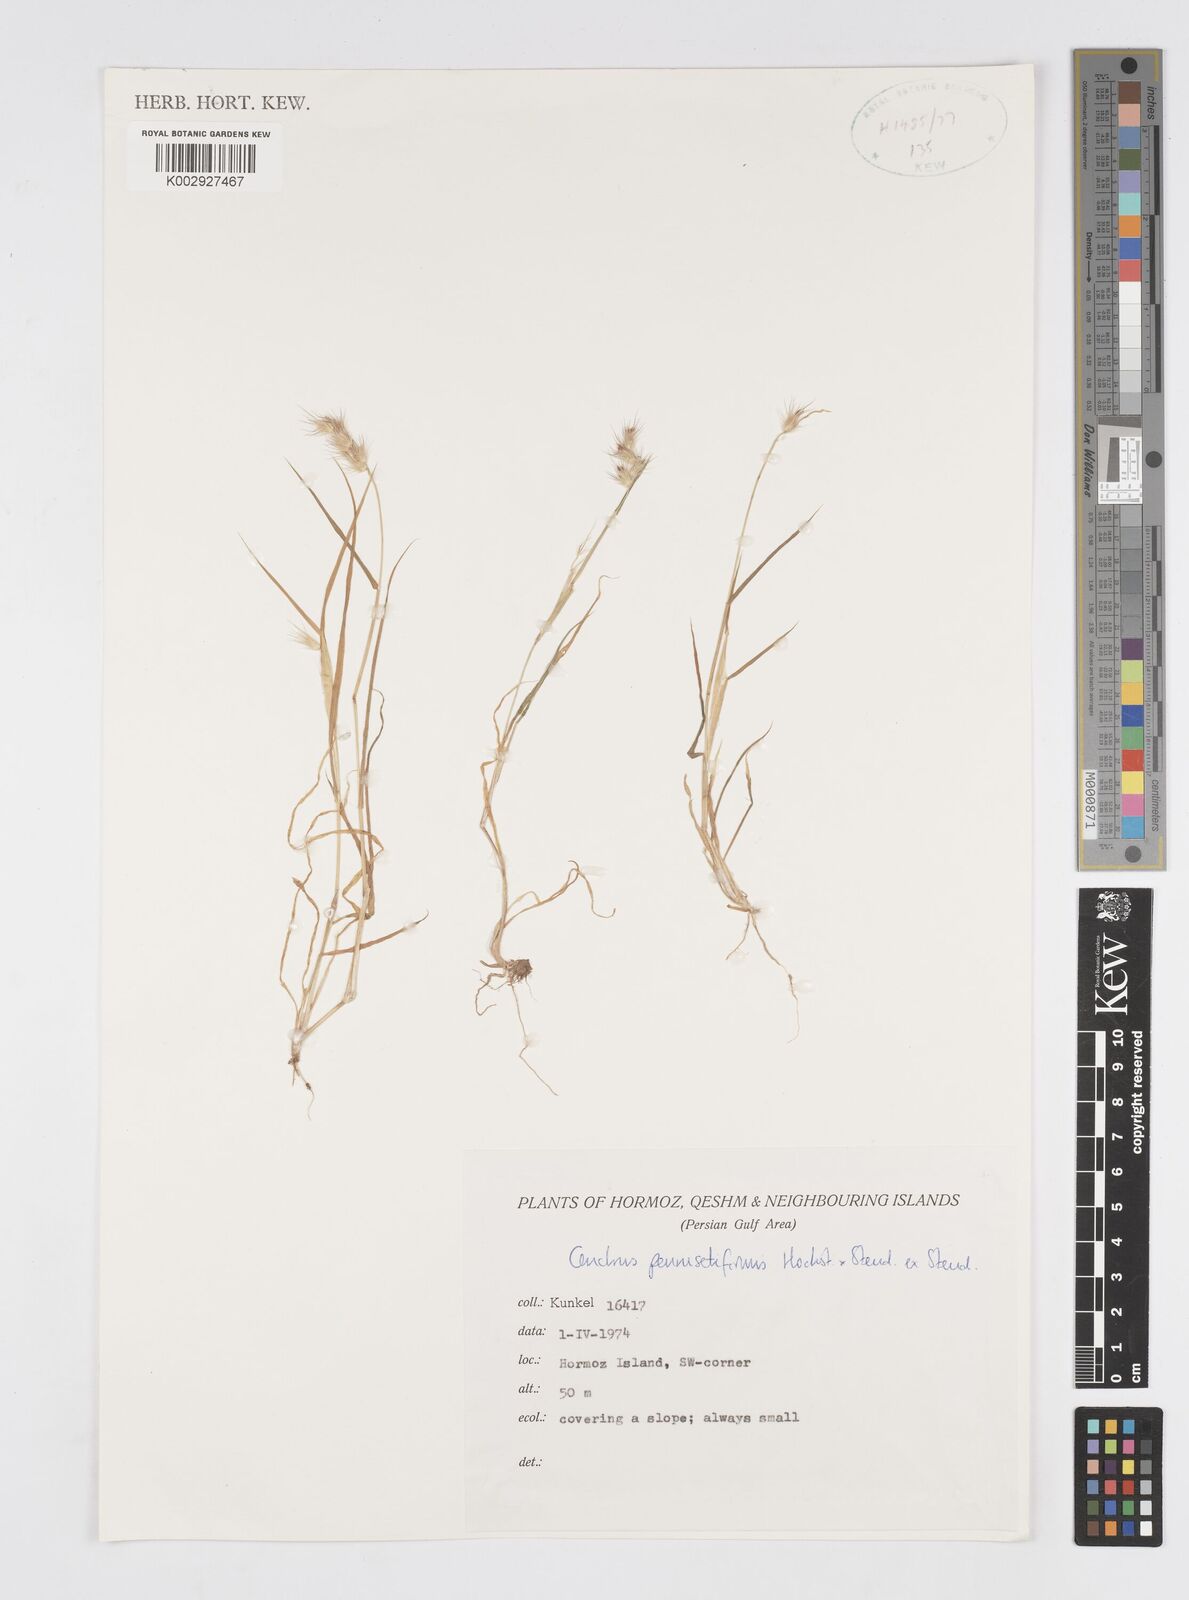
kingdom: Plantae
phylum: Tracheophyta
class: Liliopsida
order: Poales
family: Poaceae
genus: Cenchrus
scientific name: Cenchrus pennisetiformis
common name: Cloncurry
